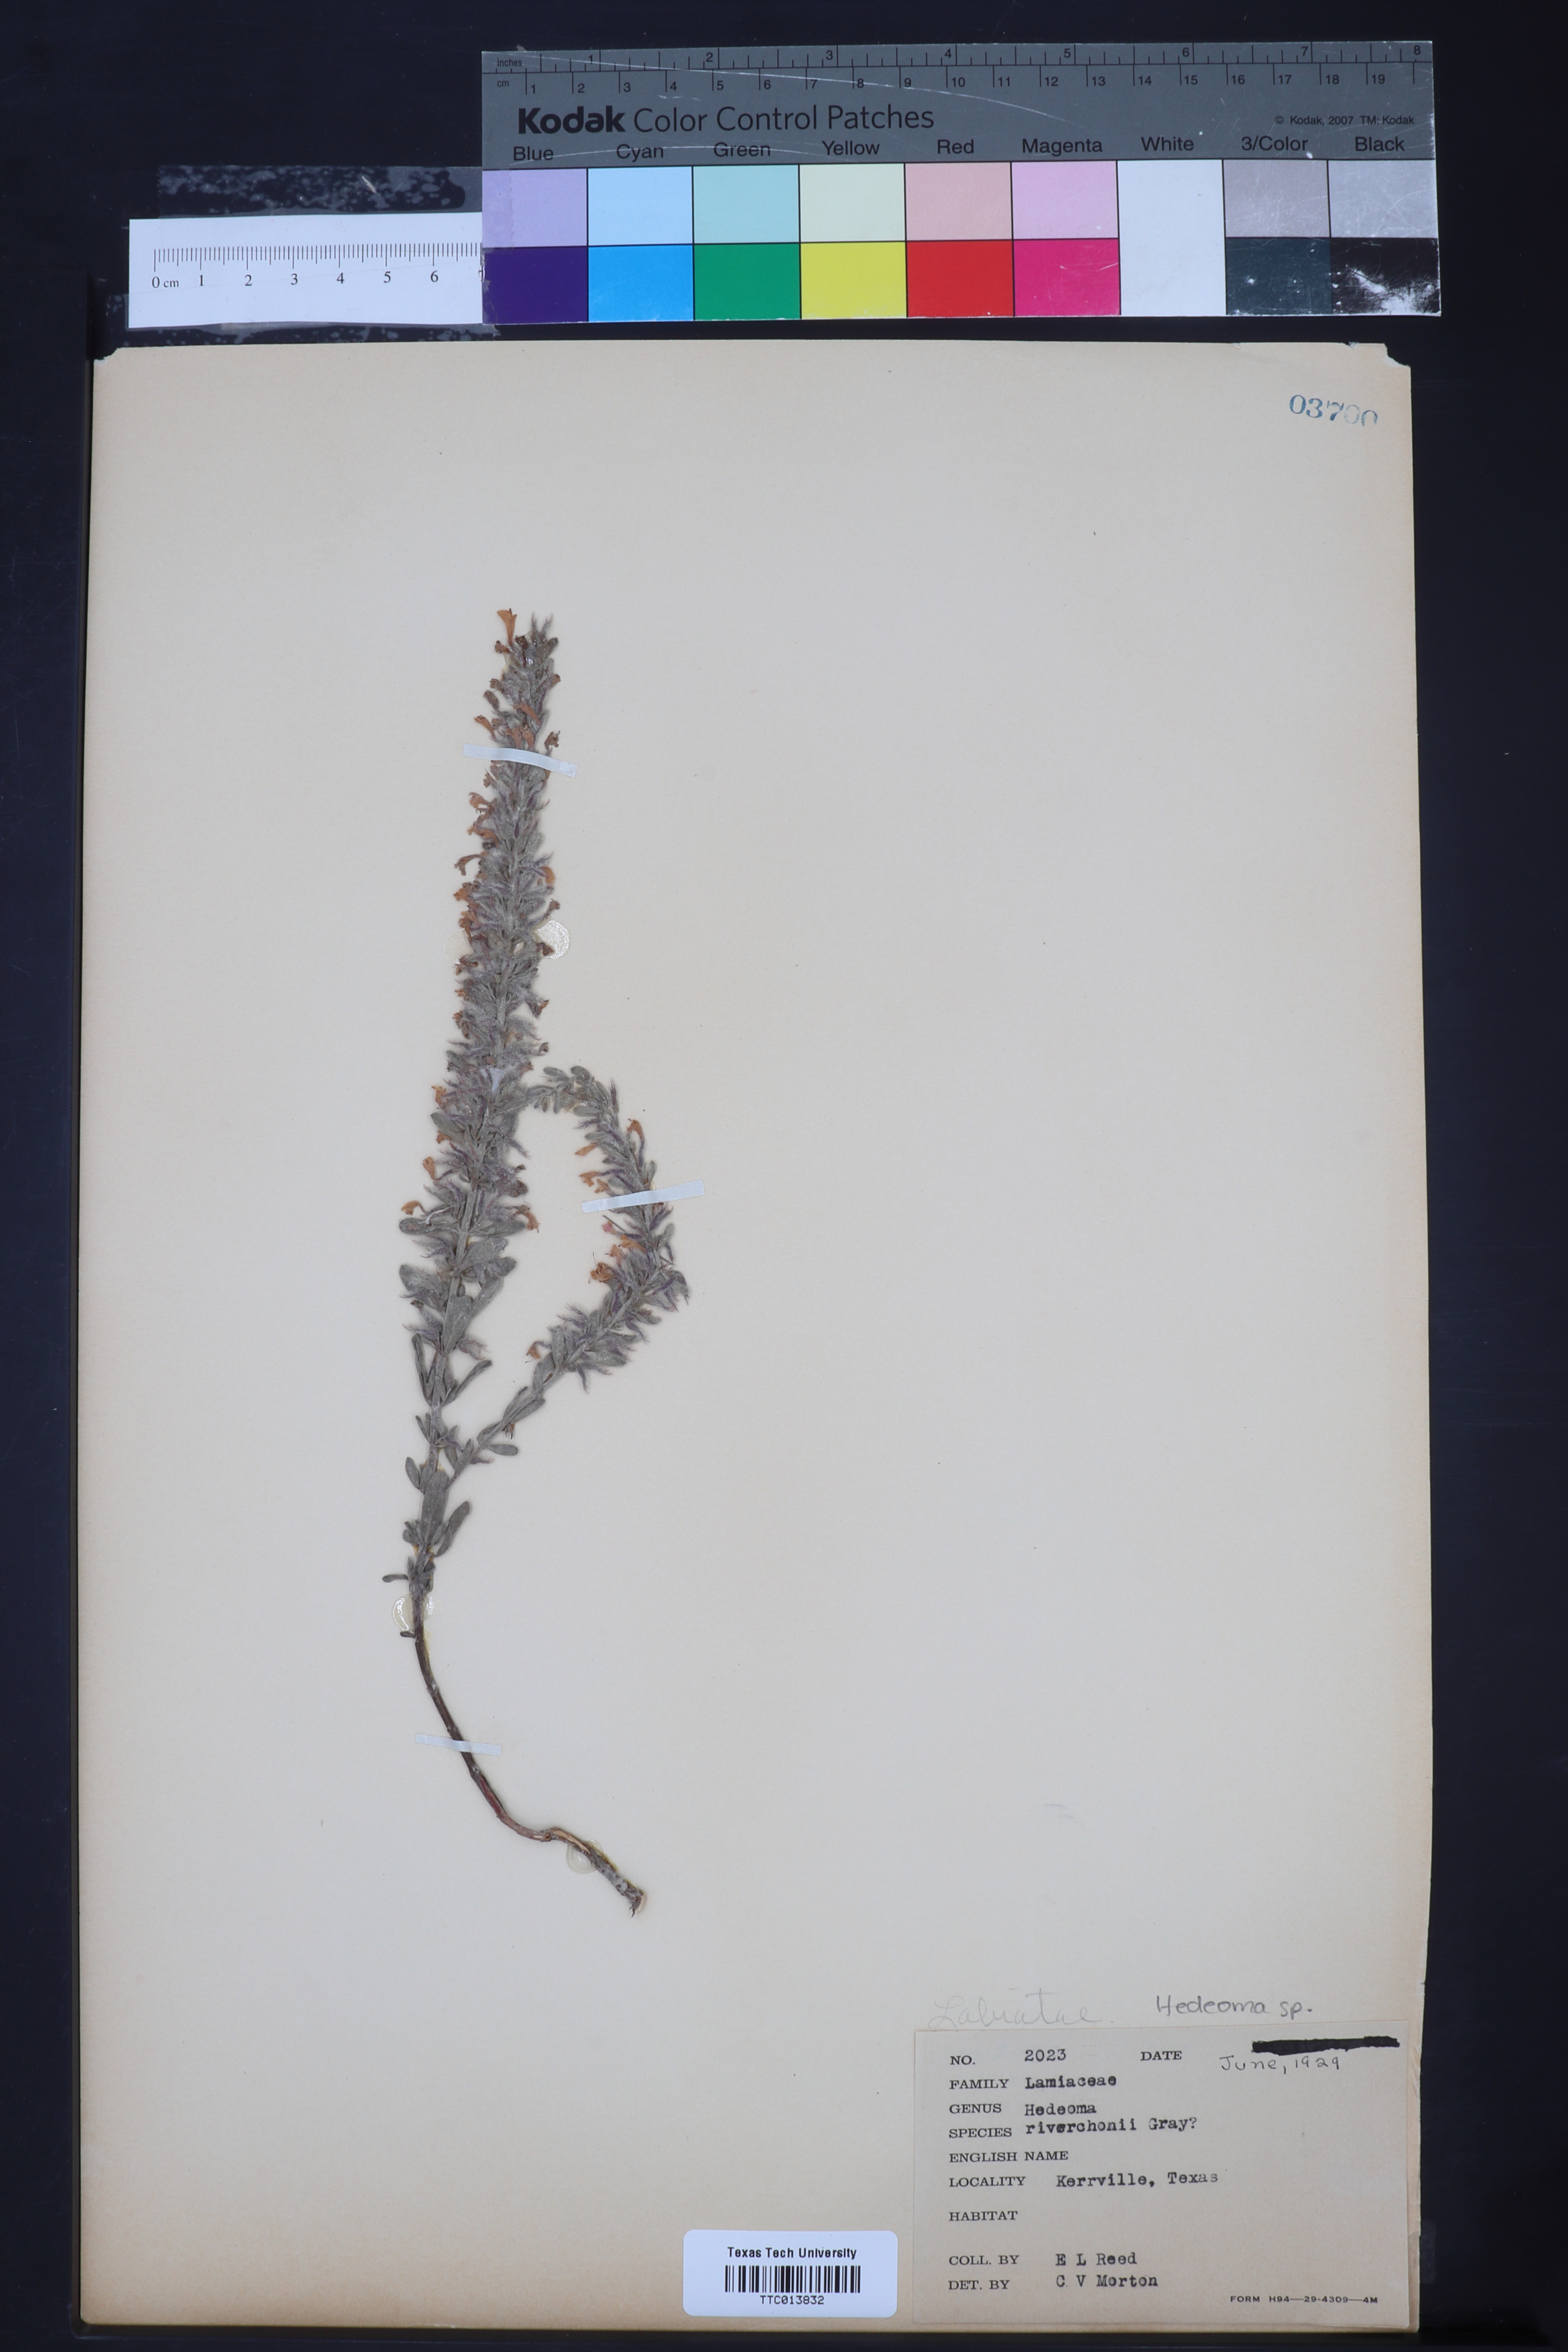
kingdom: Plantae
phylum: Tracheophyta
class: Magnoliopsida
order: Lamiales
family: Lamiaceae
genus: Hedeoma
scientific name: Hedeoma reverchonii
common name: Reverchon's false penny-royal
